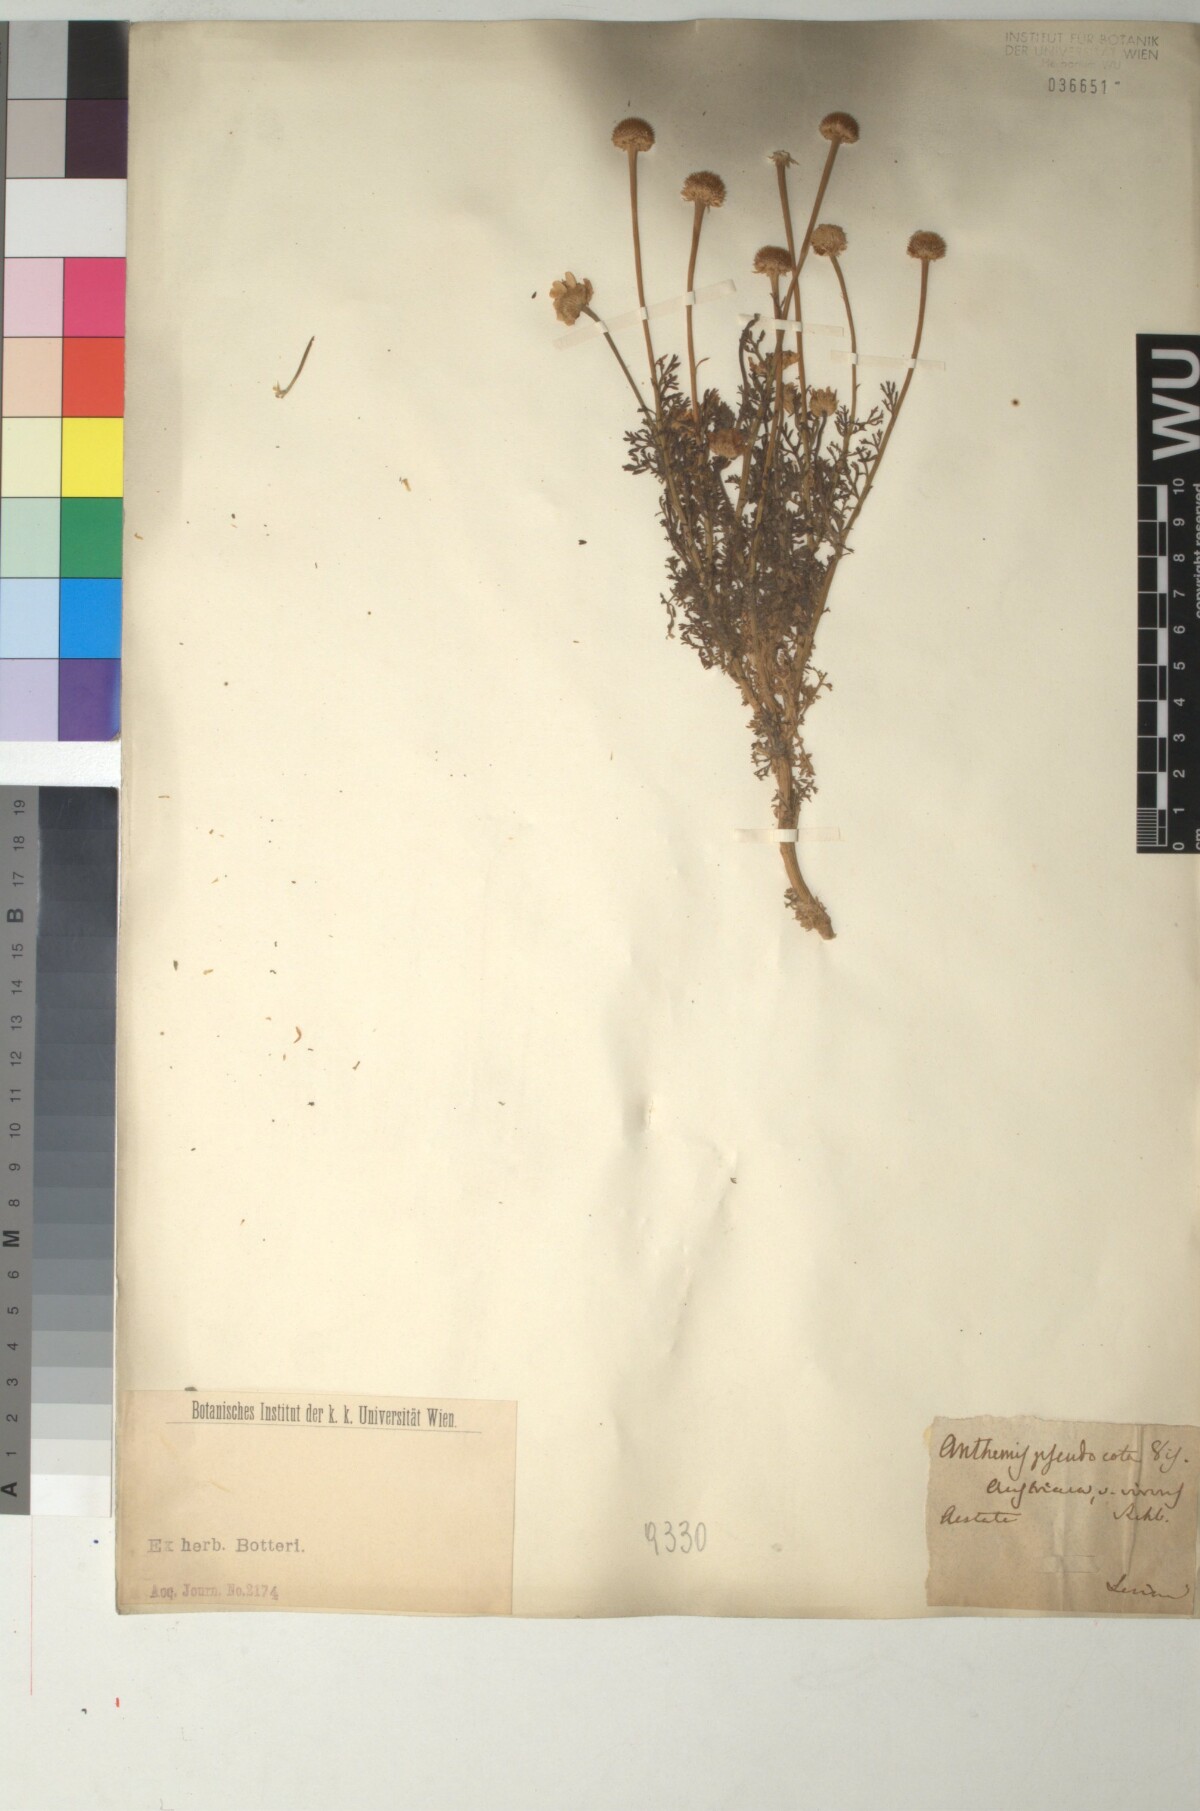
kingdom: Plantae
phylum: Tracheophyta
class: Magnoliopsida
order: Asterales
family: Asteraceae
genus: Cota
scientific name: Cota segetalis
